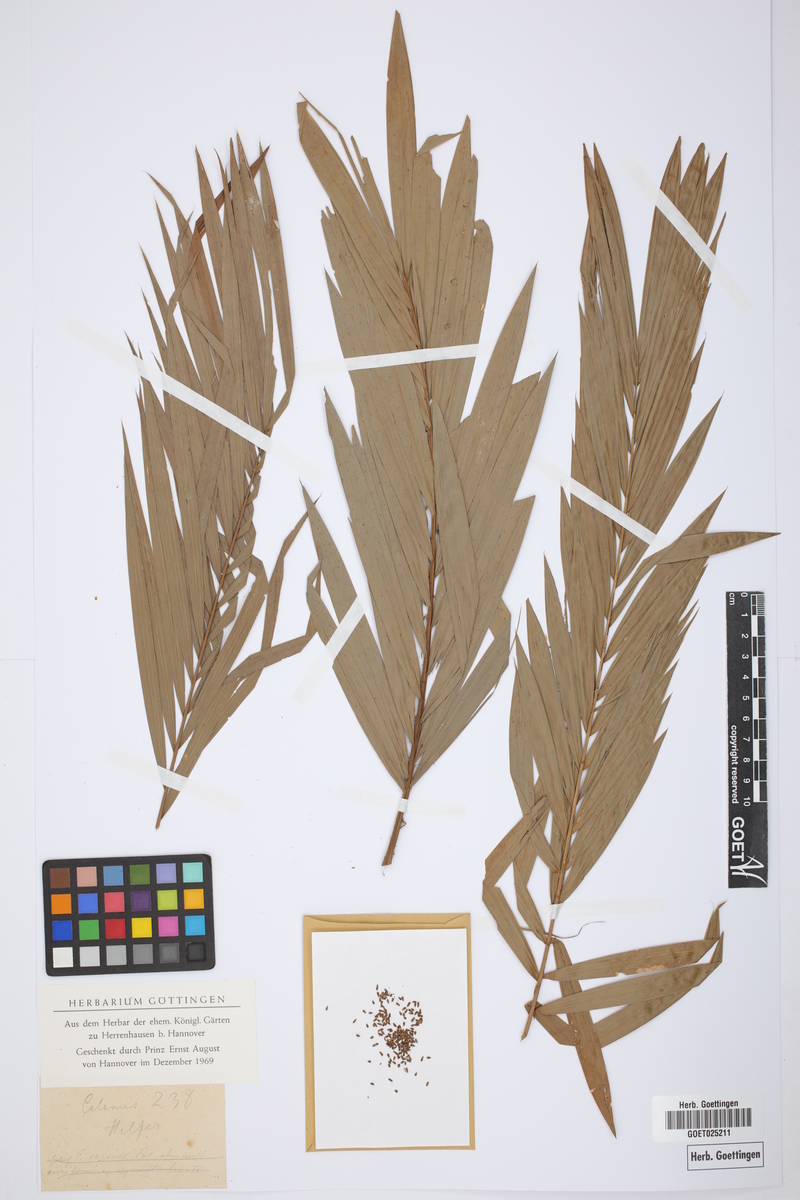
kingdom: Plantae
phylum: Tracheophyta
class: Liliopsida
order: Arecales
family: Arecaceae
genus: Calamus
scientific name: Calamus
